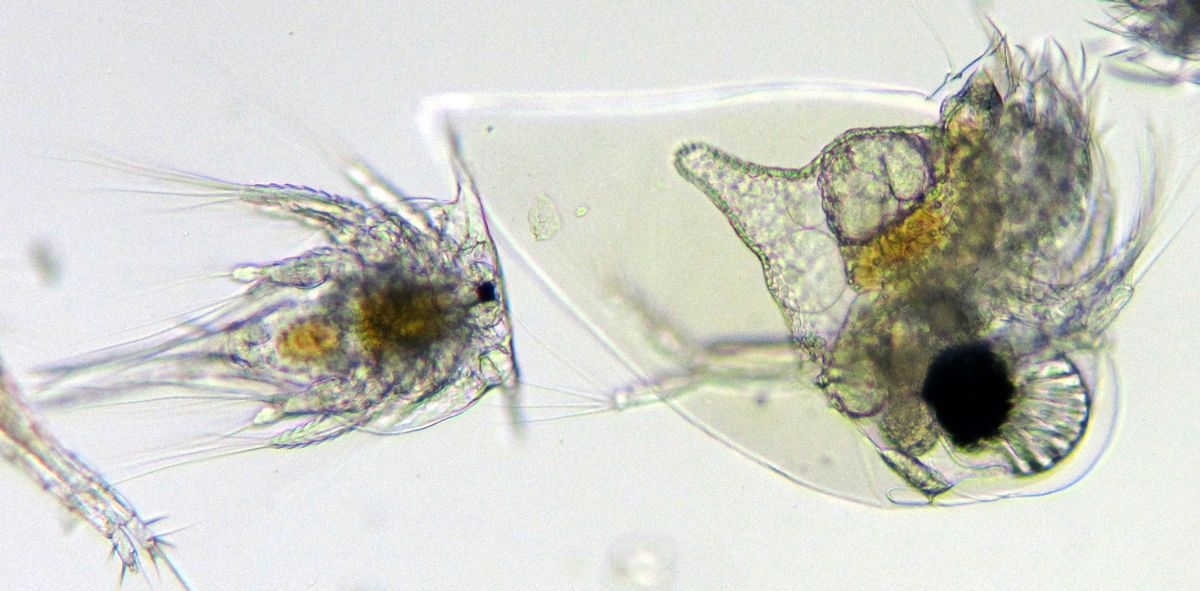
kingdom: Animalia
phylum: Arthropoda
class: Branchiopoda
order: Diplostraca
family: Podonidae
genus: Evadne
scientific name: Evadne nordmanni
